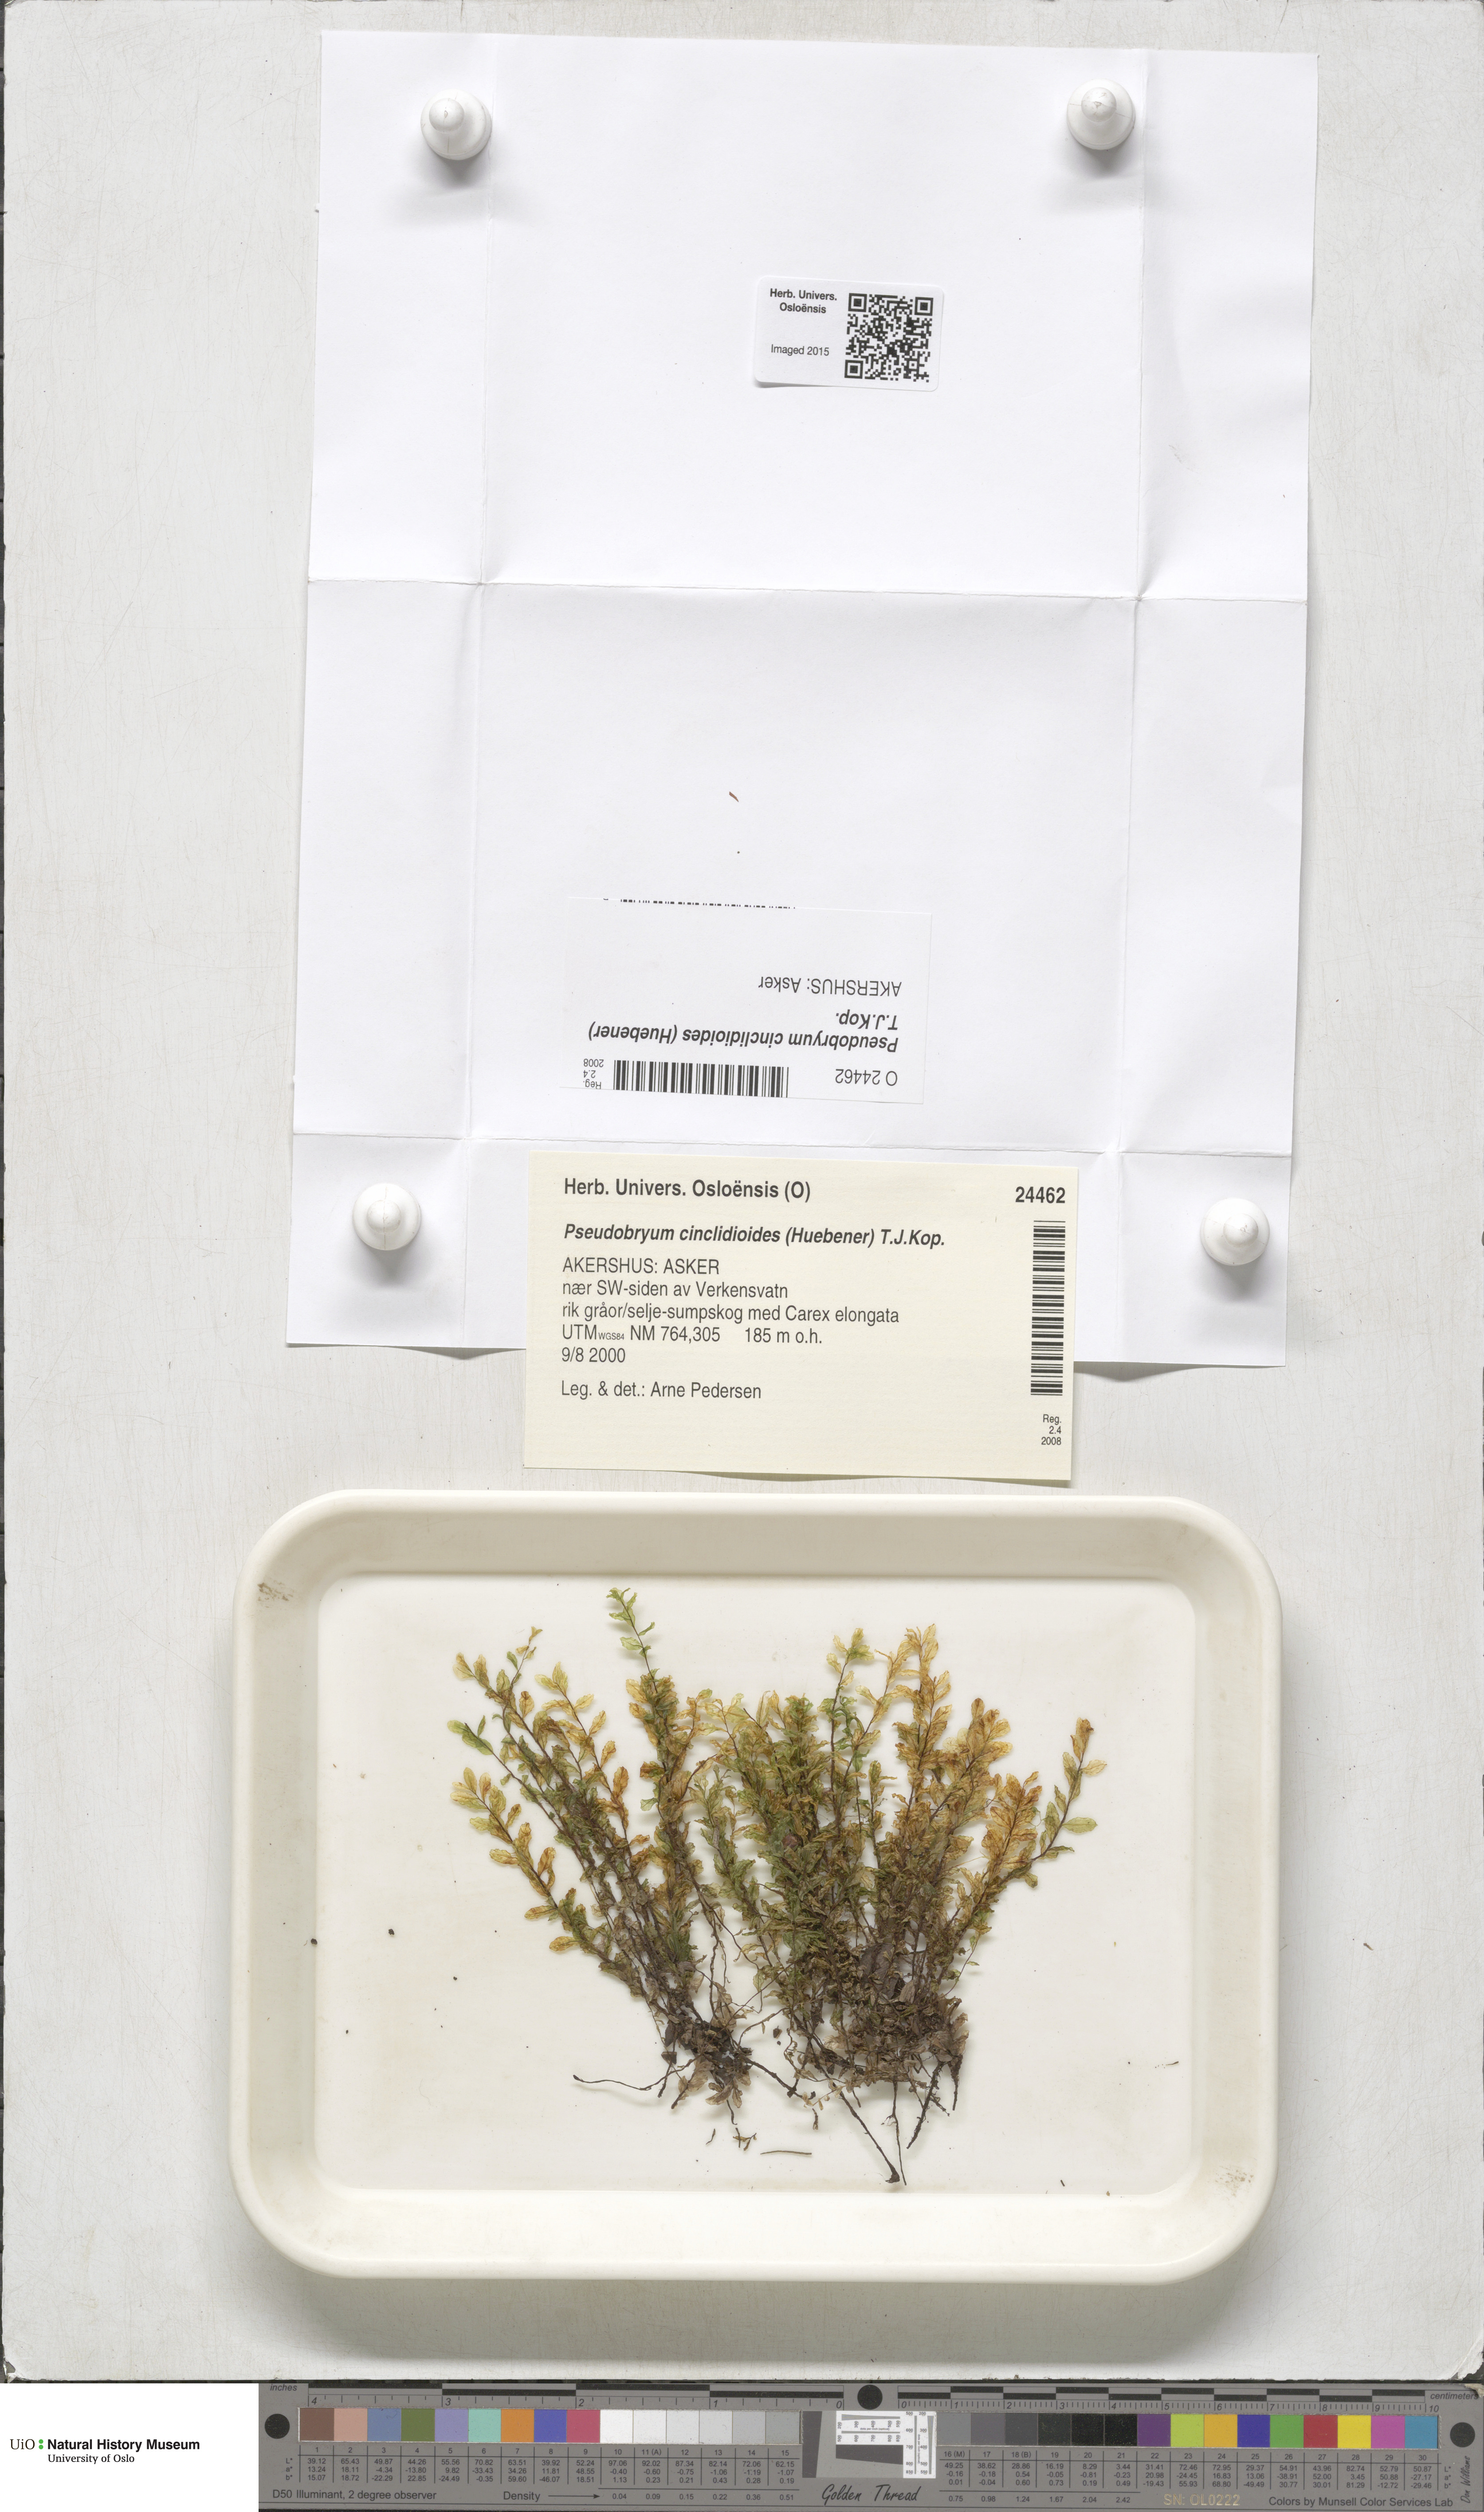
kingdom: Plantae
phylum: Bryophyta
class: Bryopsida
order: Bryales
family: Mniaceae
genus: Pseudobryum
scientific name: Pseudobryum cinclidioides
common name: River thyme moss
